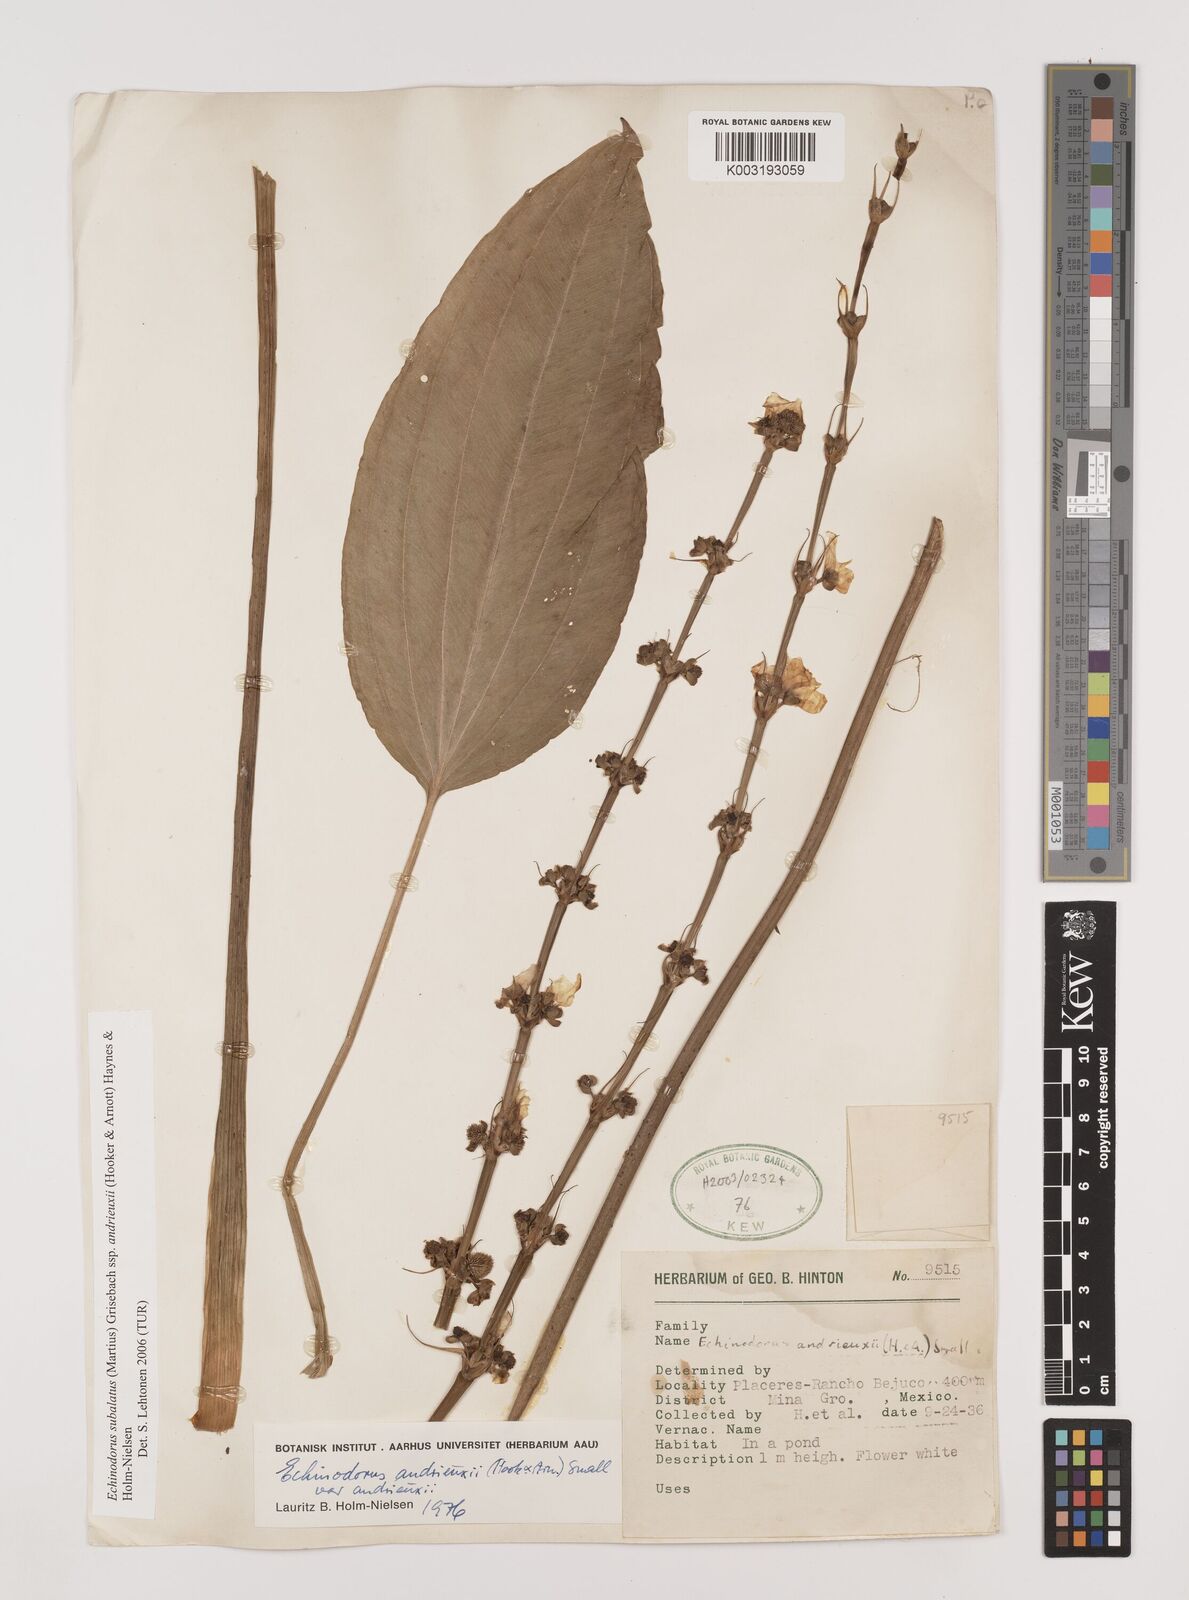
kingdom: Plantae
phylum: Tracheophyta
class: Liliopsida
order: Alismatales
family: Alismataceae
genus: Aquarius
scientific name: Aquarius subulatus
